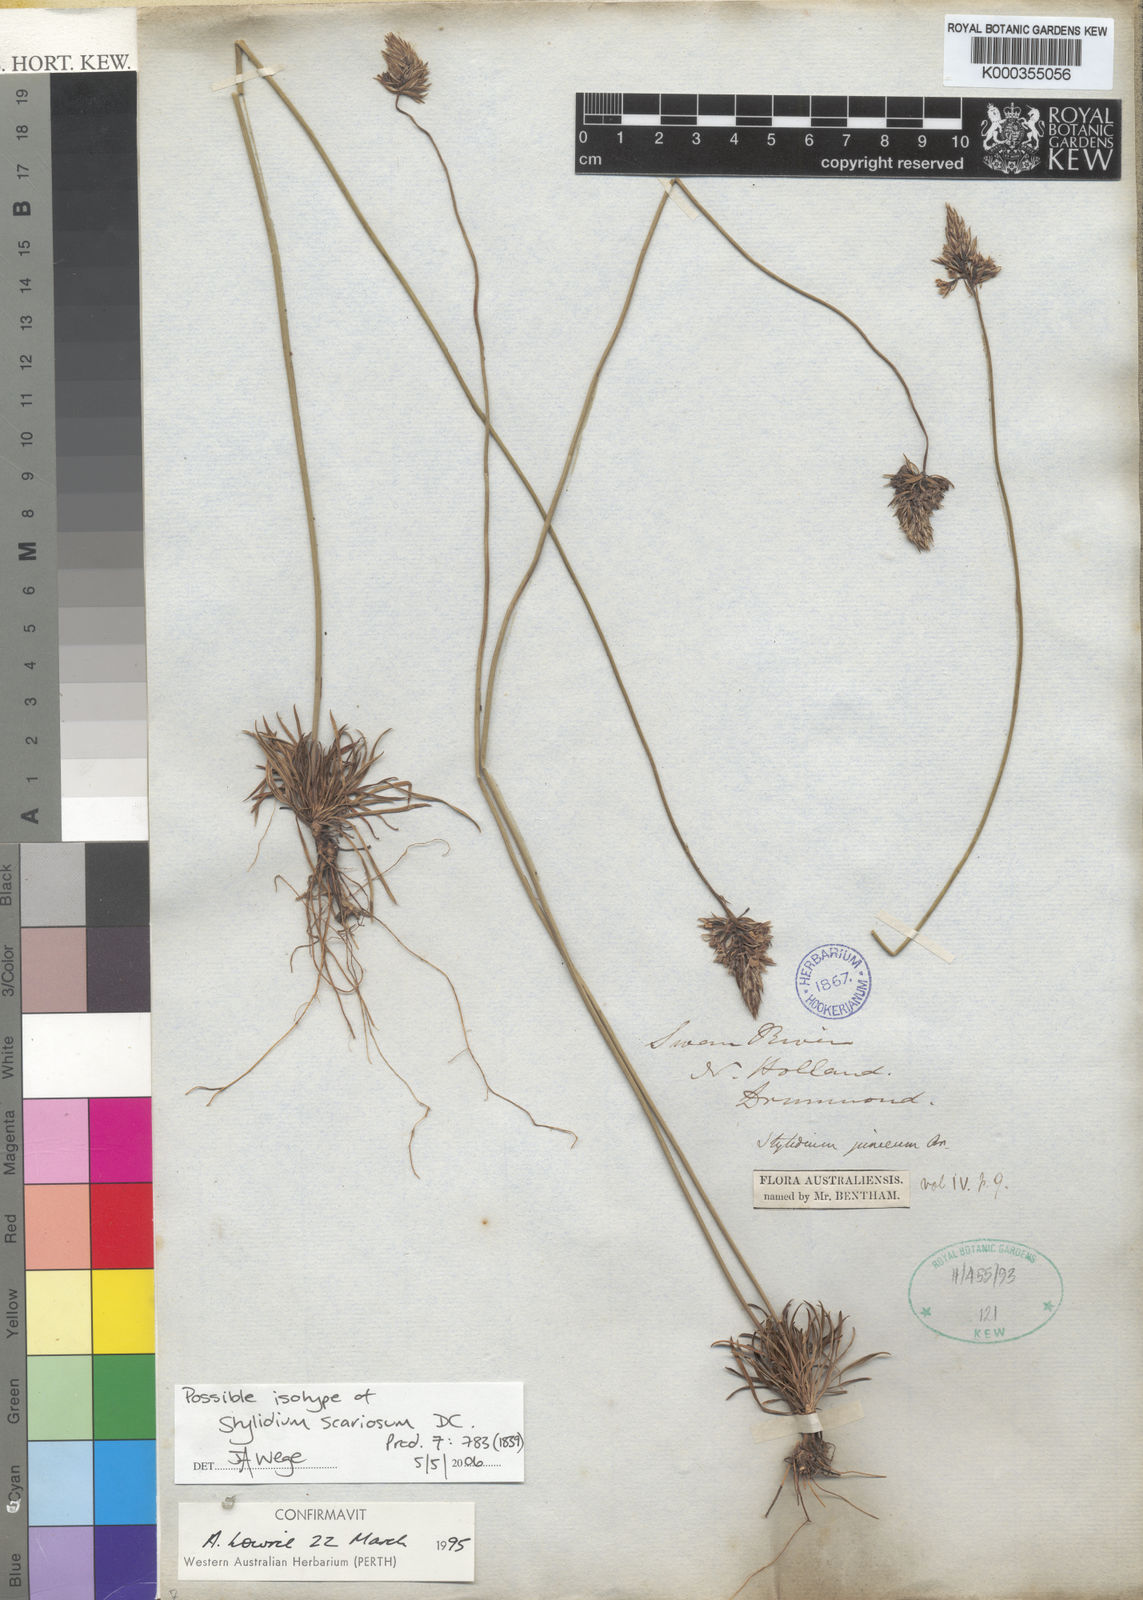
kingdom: Plantae
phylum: Tracheophyta
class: Magnoliopsida
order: Asterales
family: Stylidiaceae
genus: Stylidium
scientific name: Stylidium scariosum
